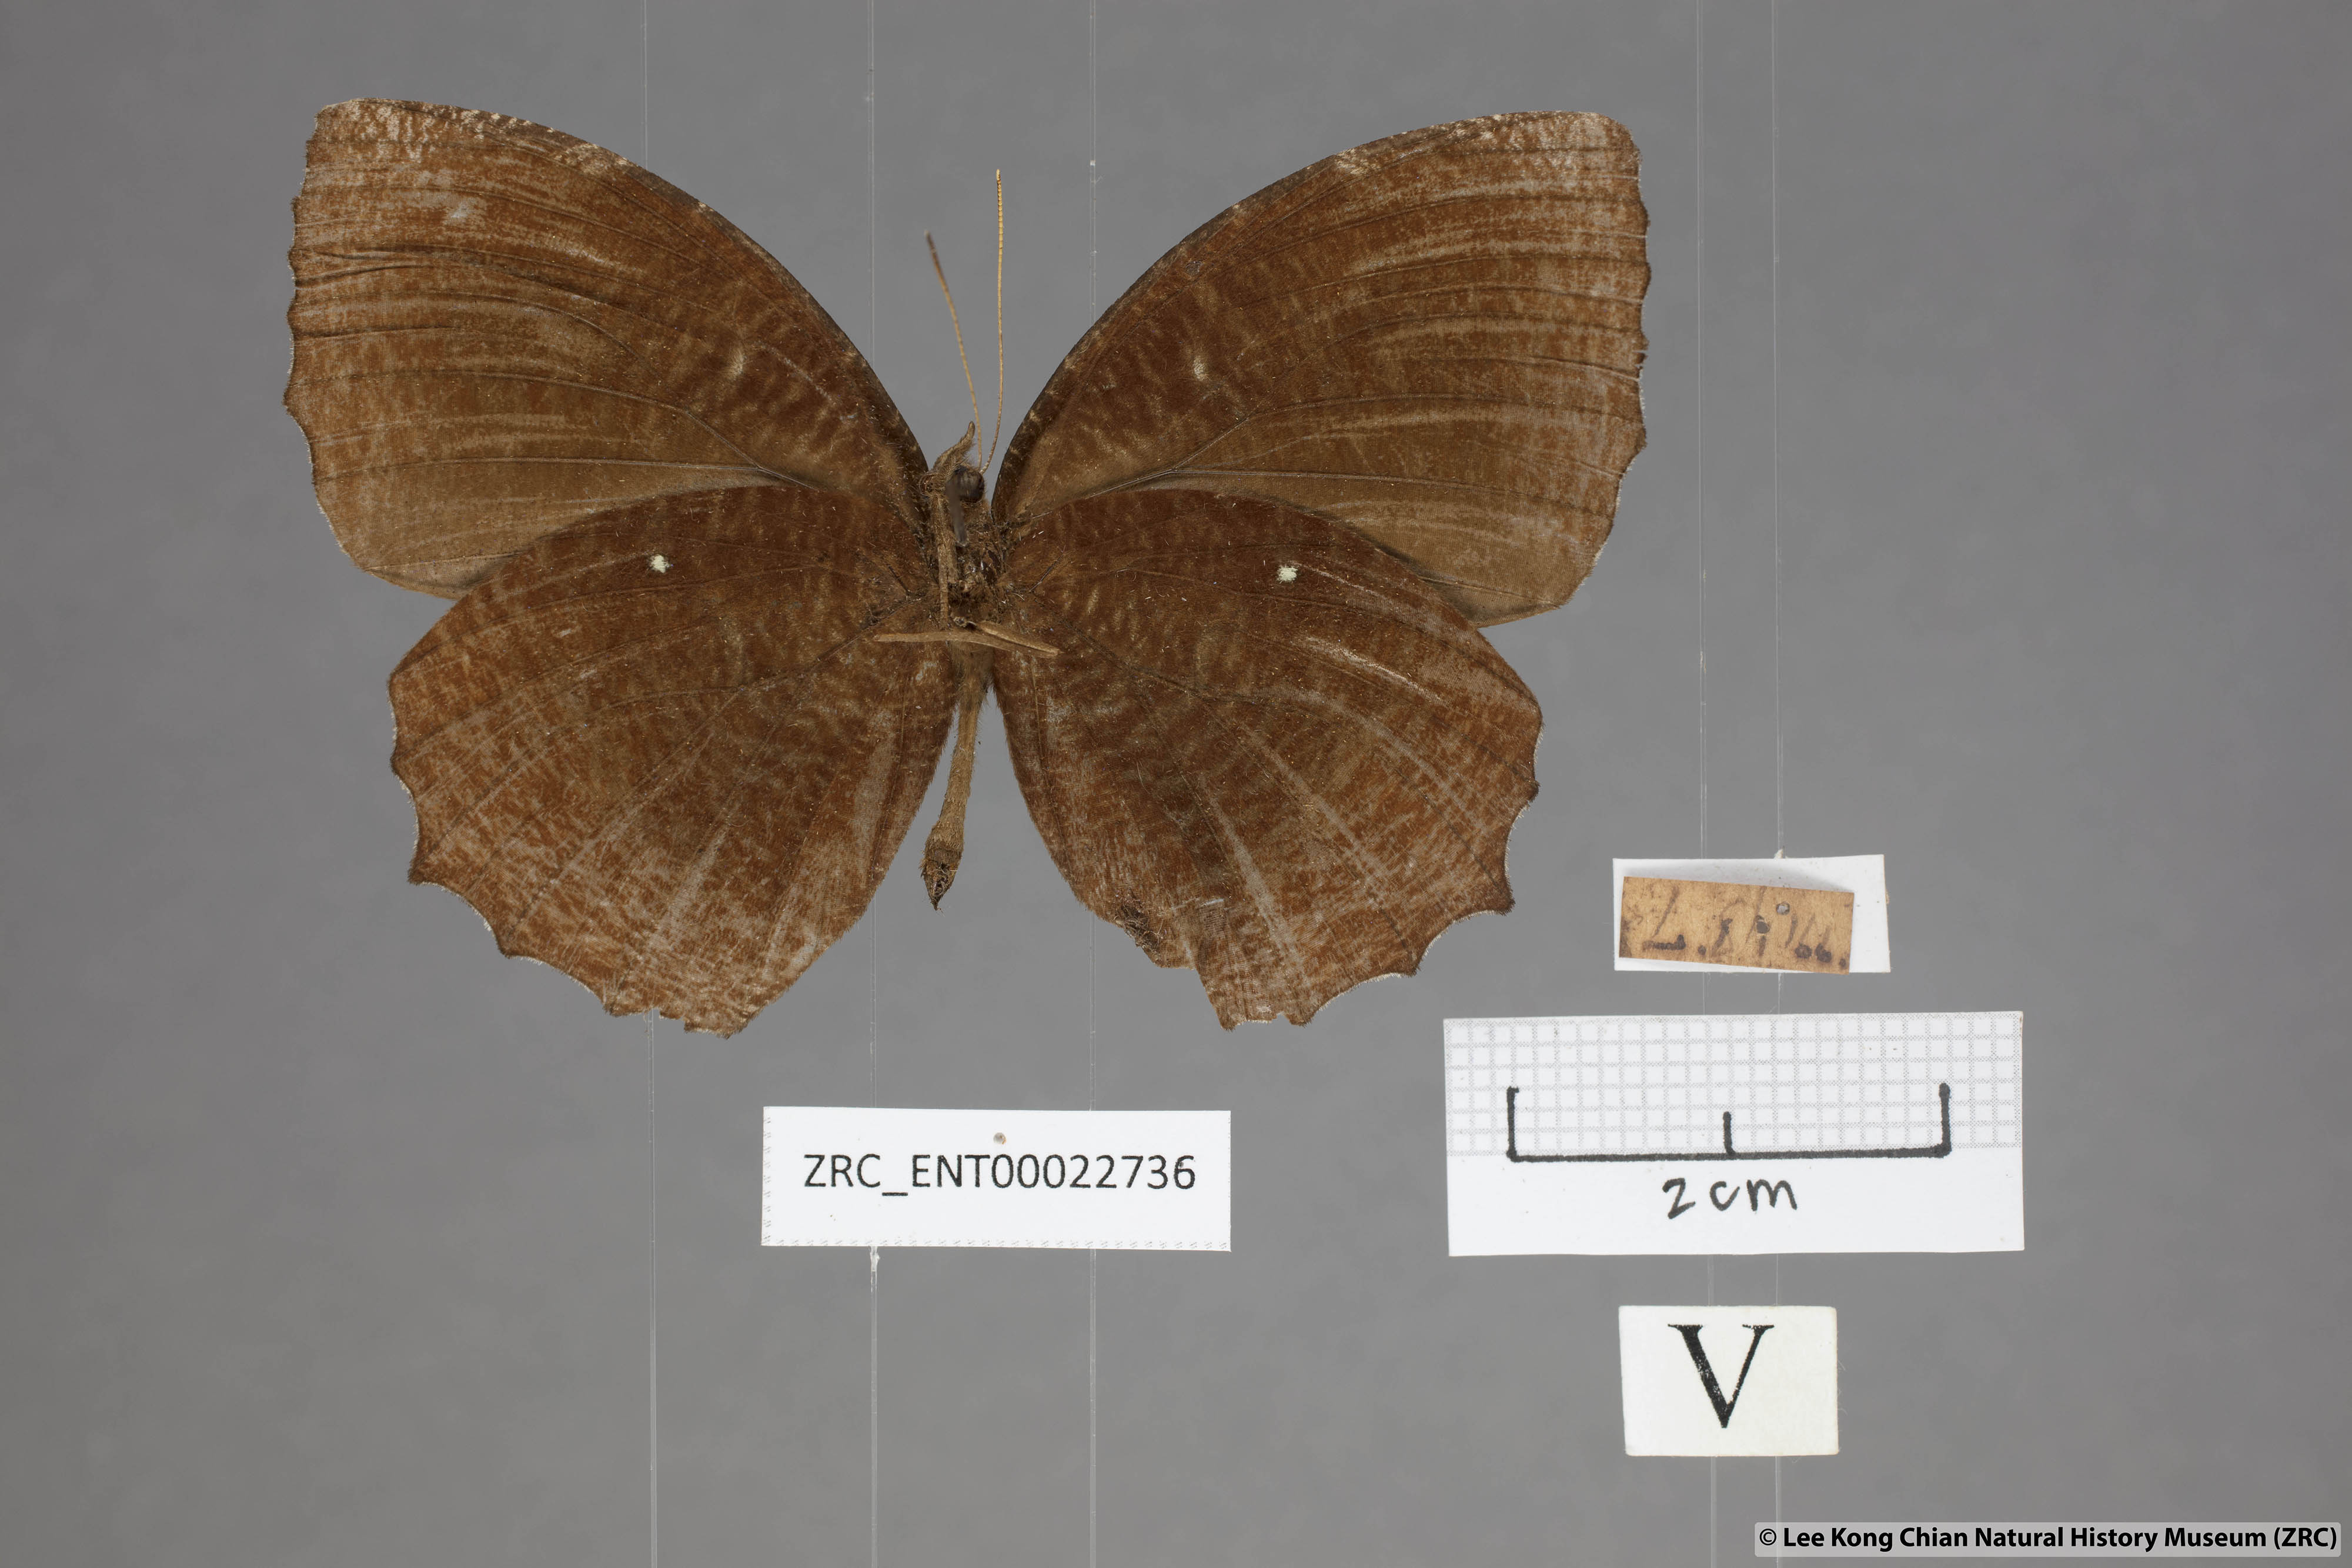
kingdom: Animalia
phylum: Arthropoda
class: Insecta
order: Lepidoptera
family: Nymphalidae
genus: Elymnias
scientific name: Elymnias hypermnestra
